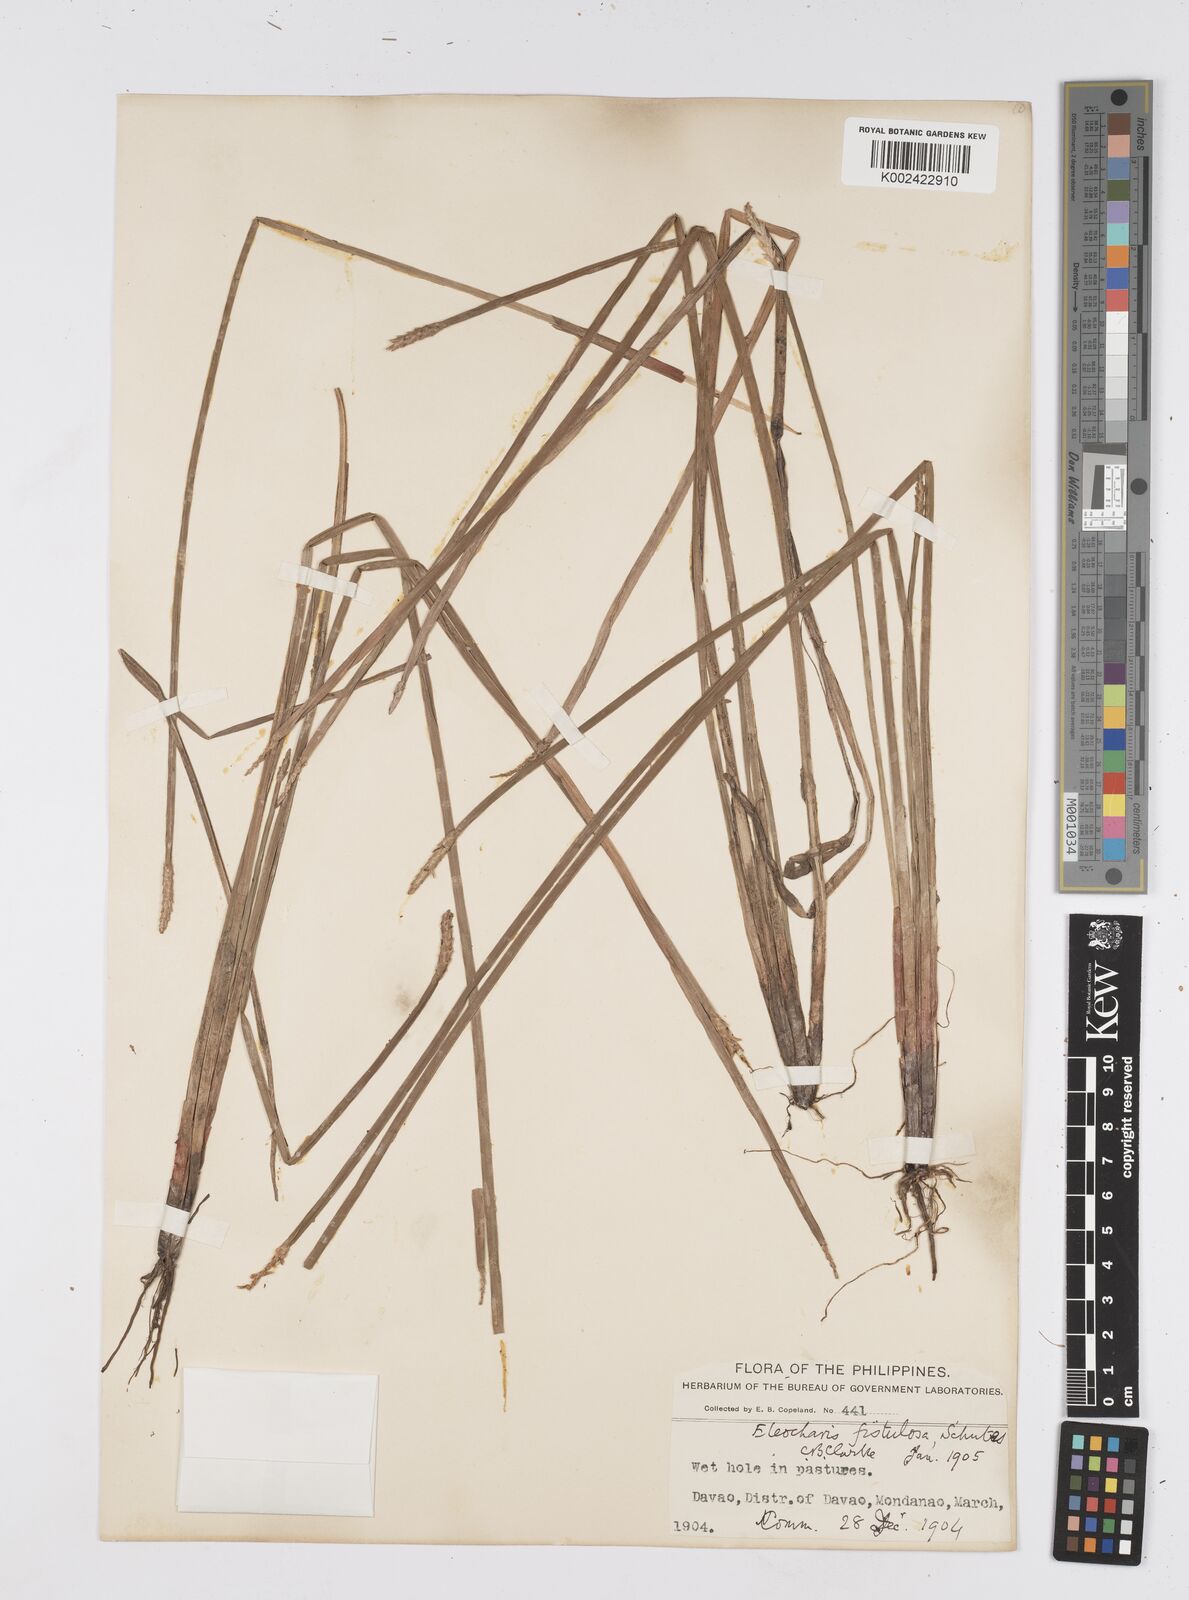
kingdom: Plantae
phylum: Tracheophyta
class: Liliopsida
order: Poales
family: Cyperaceae
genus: Eleocharis
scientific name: Eleocharis acutangula
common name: Acute spikerush
